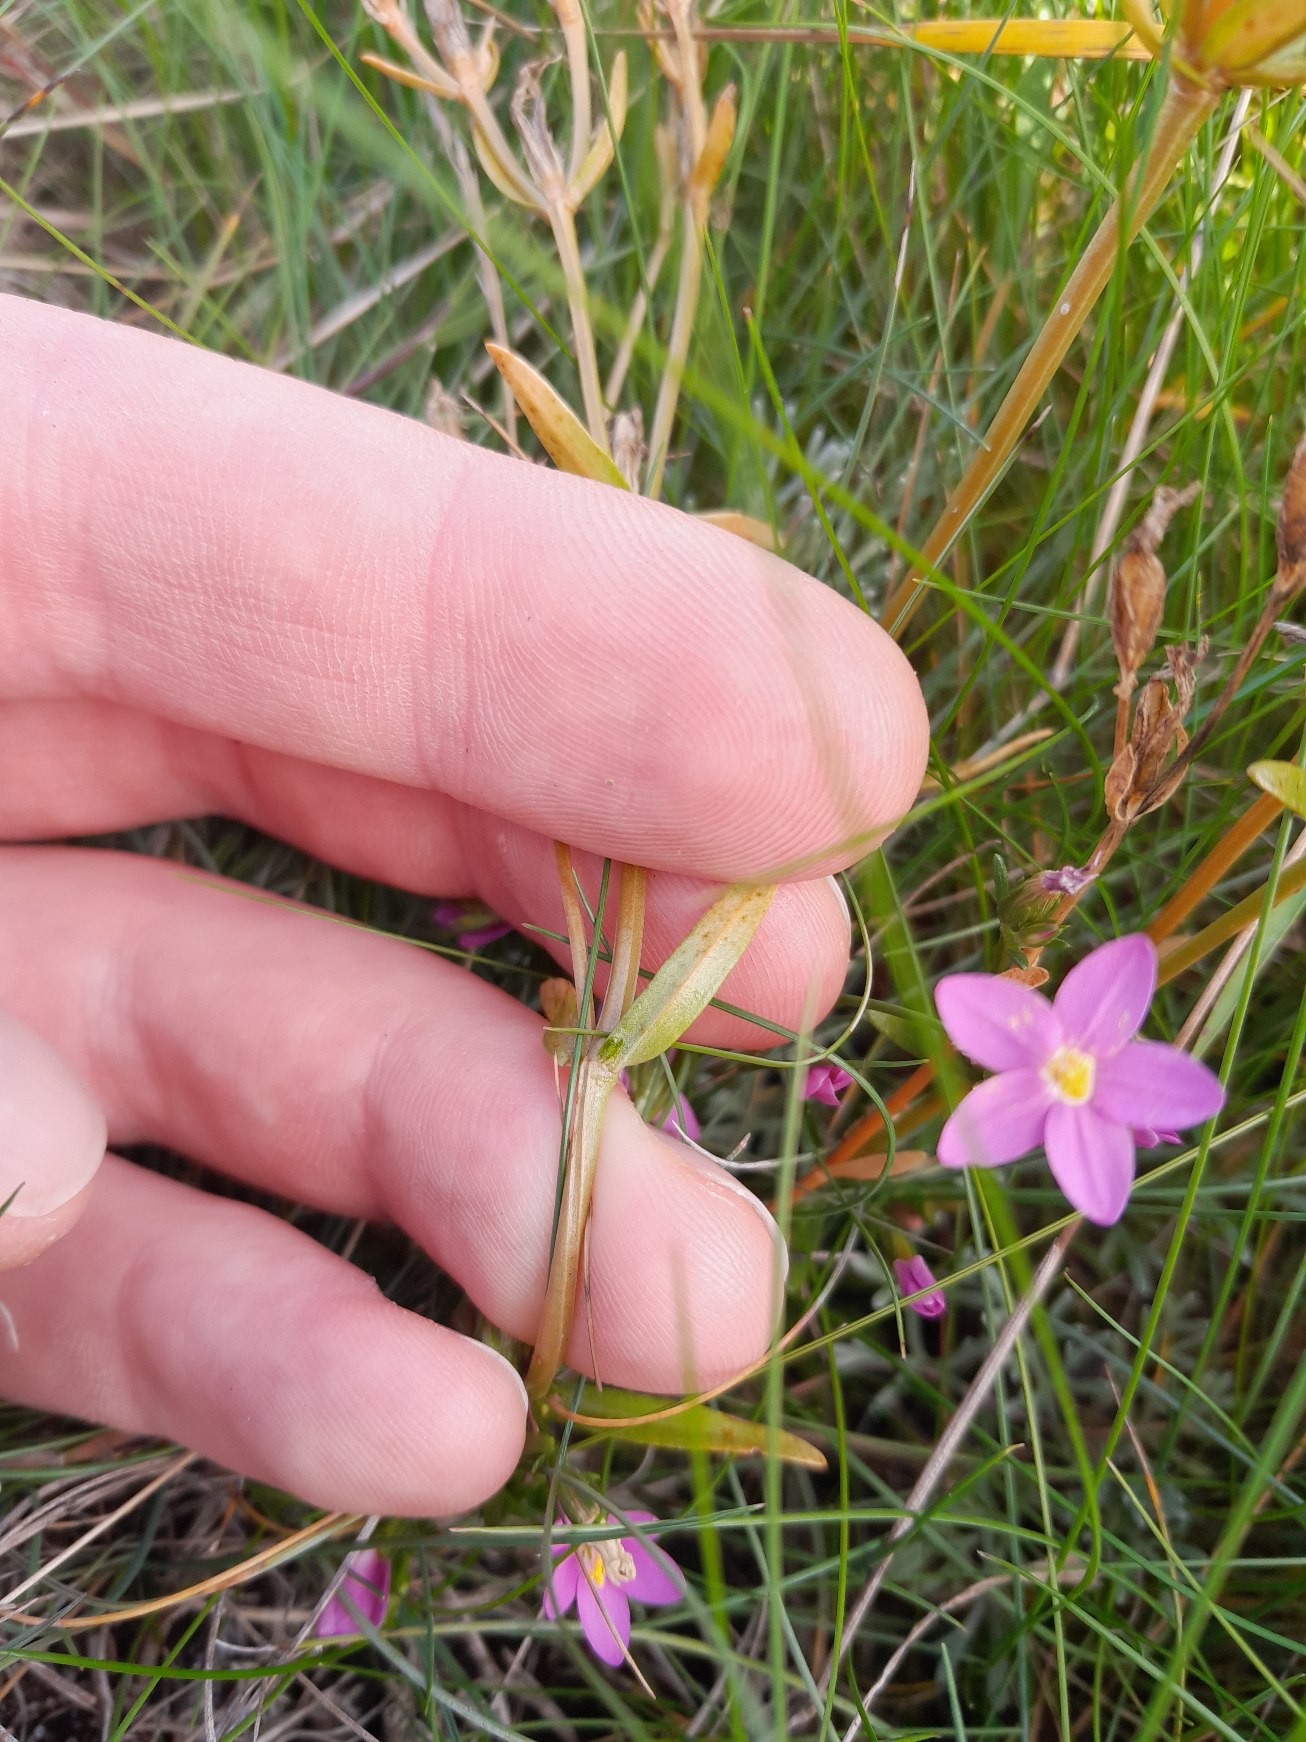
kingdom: Plantae
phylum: Tracheophyta
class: Magnoliopsida
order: Gentianales
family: Gentianaceae
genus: Centaurium
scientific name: Centaurium littorale
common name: Strand-tusindgylden
